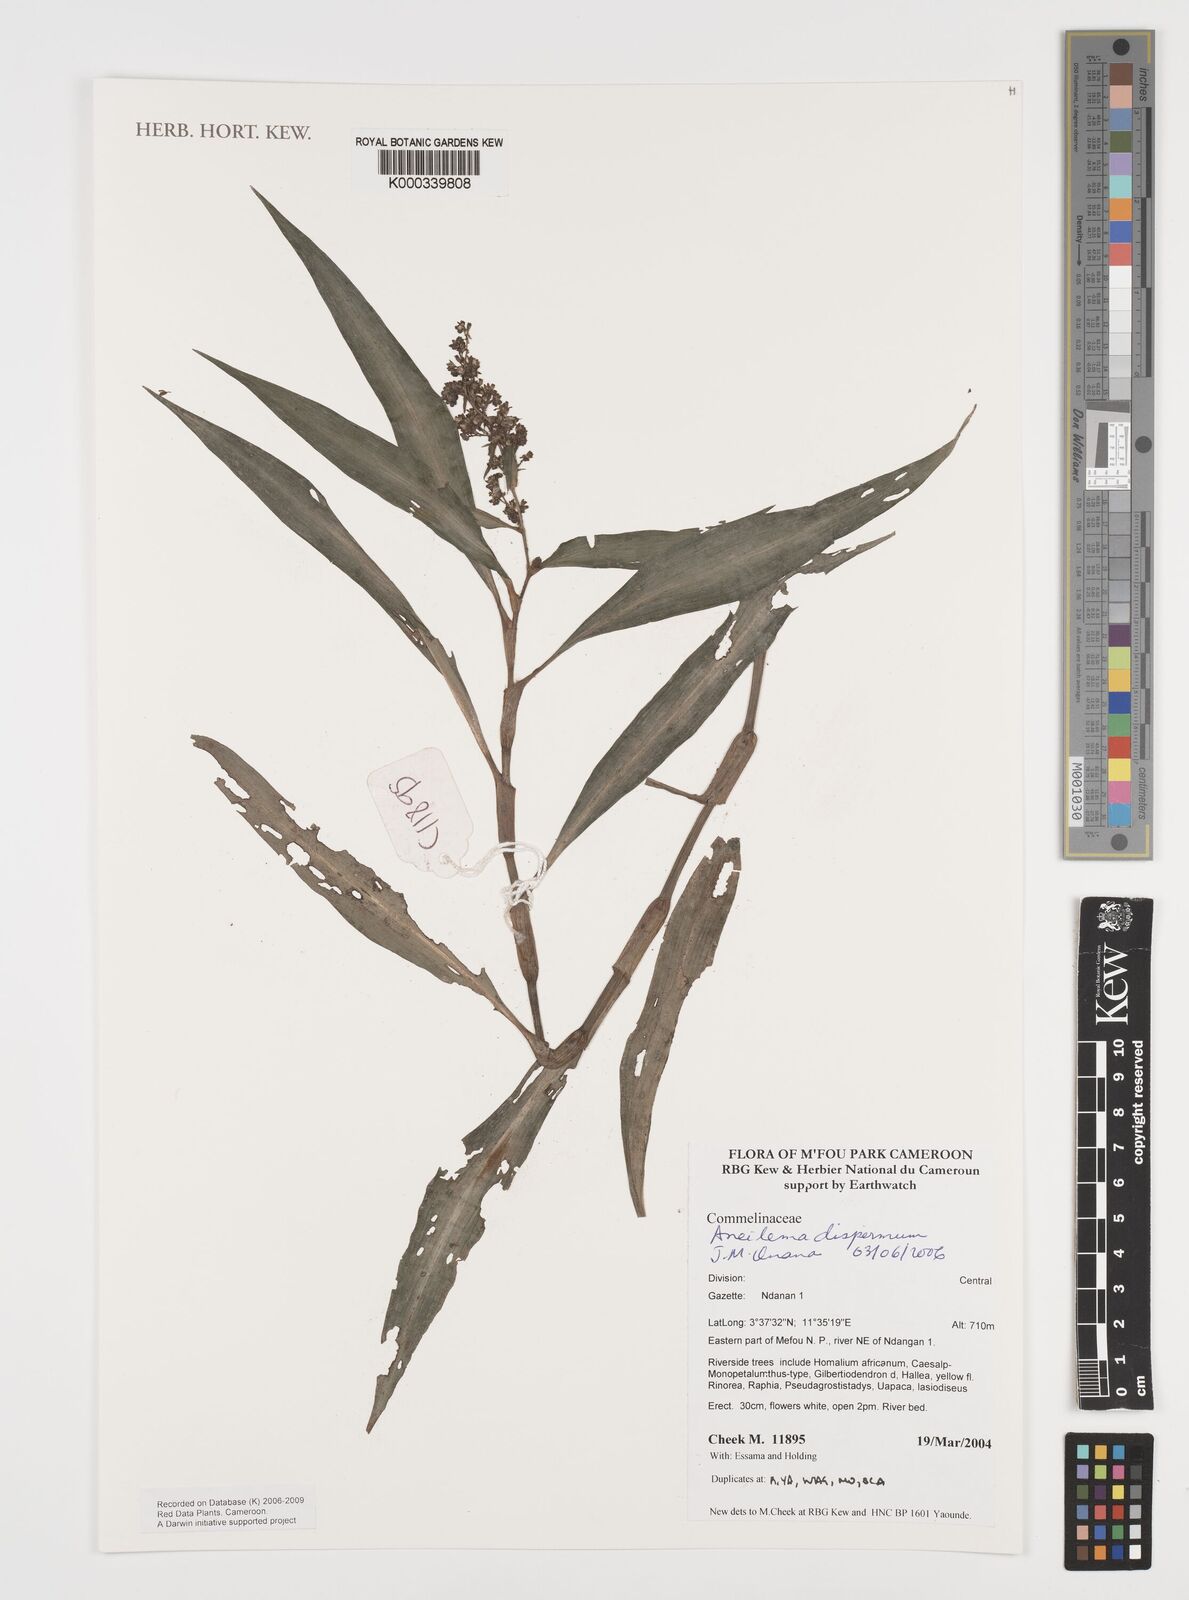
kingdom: Plantae
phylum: Tracheophyta
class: Liliopsida
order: Commelinales
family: Commelinaceae
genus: Aneilema
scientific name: Aneilema dispermum
